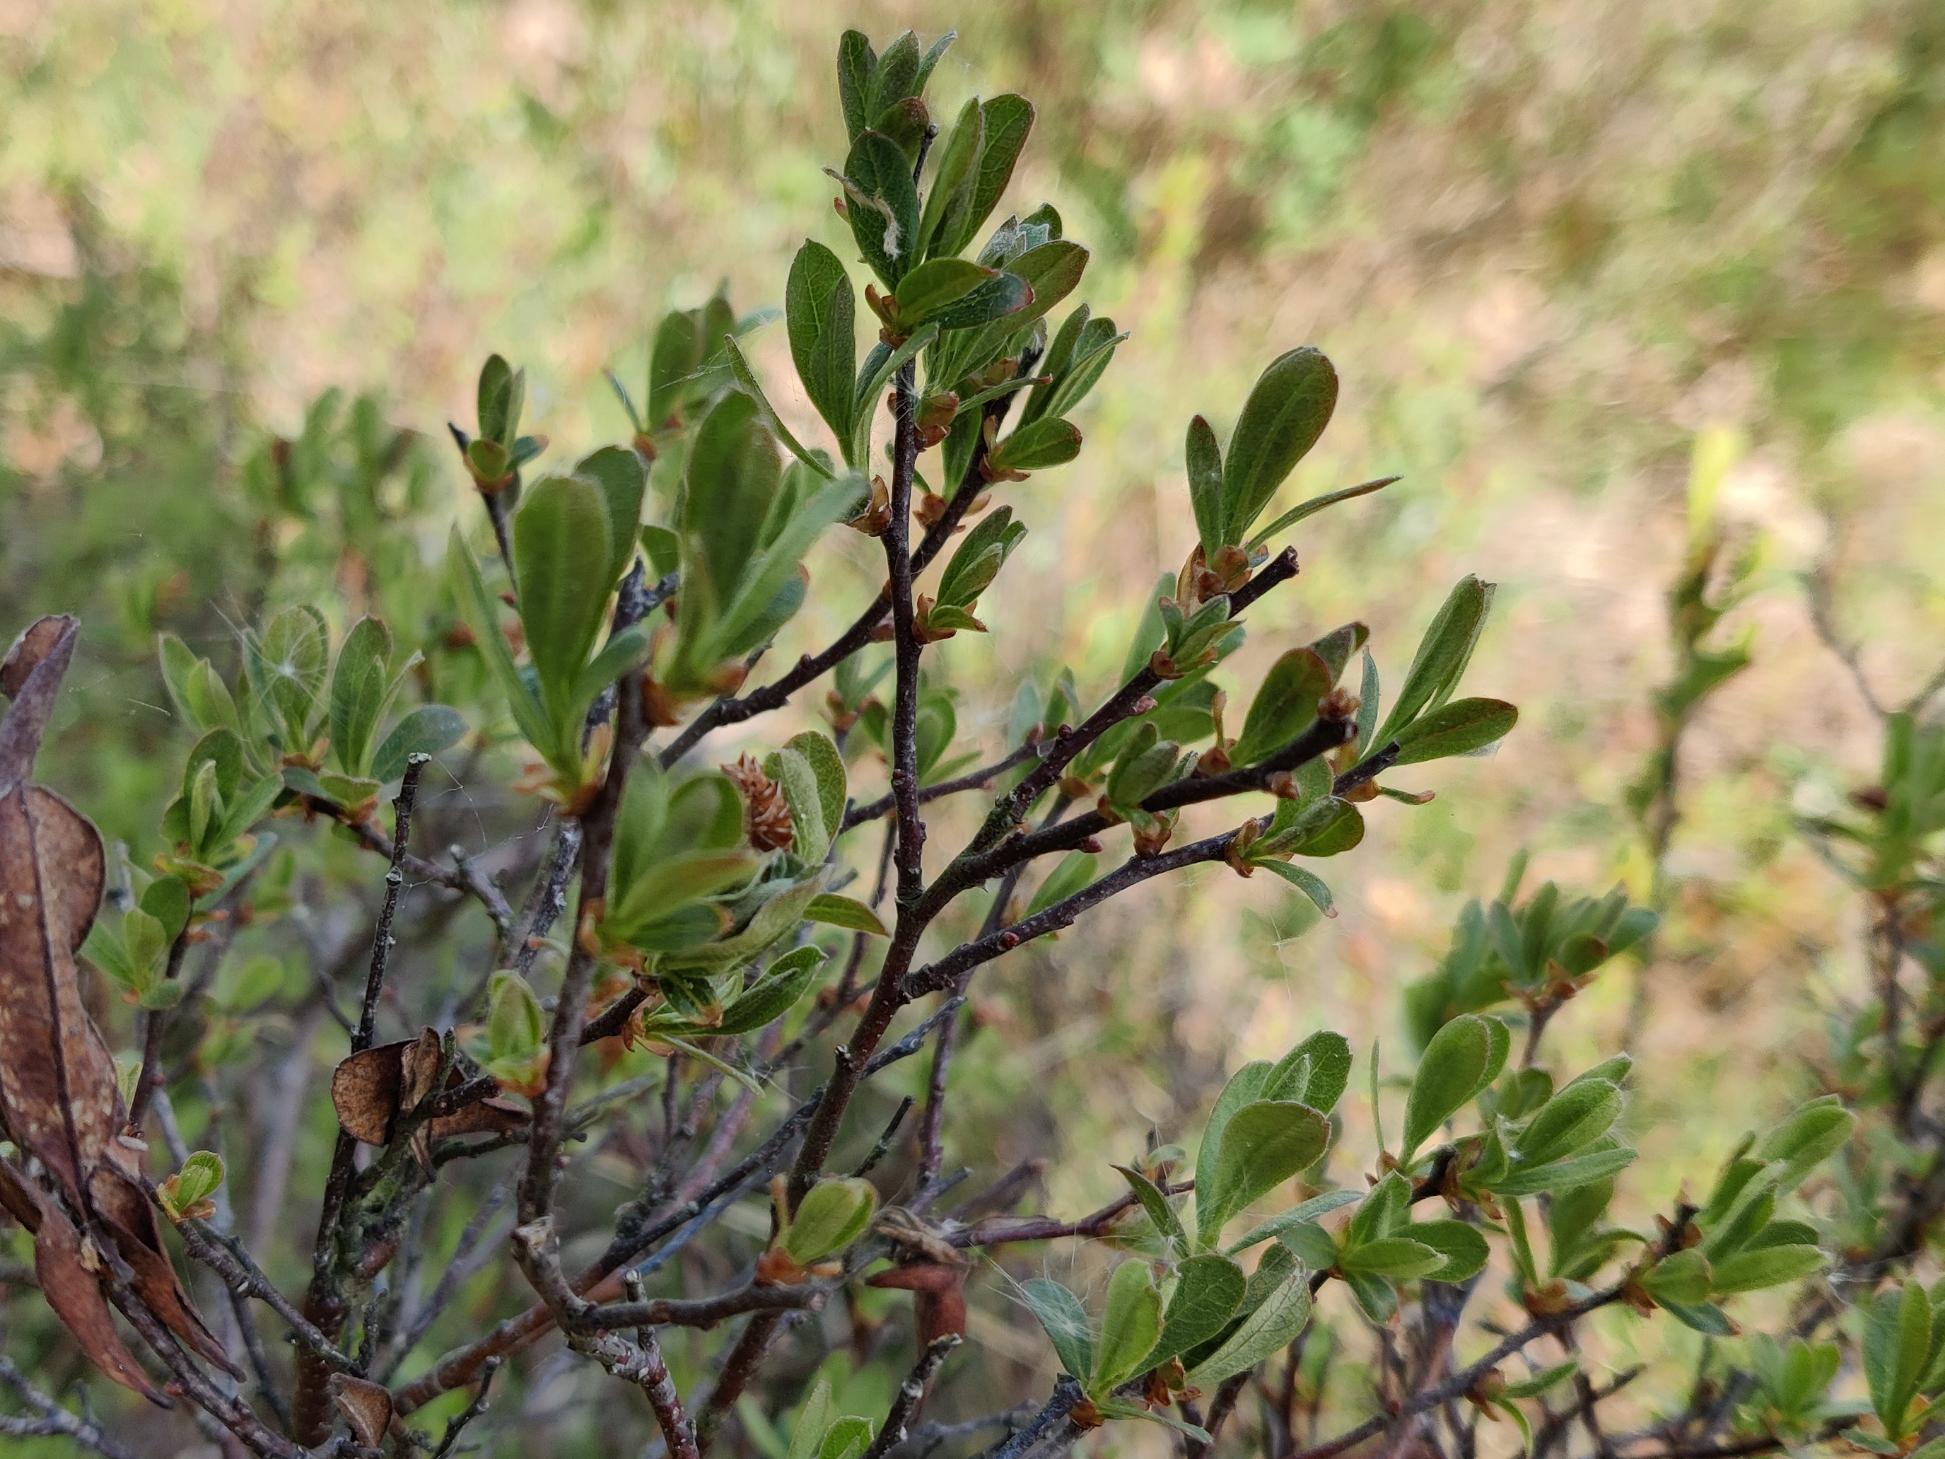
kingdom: Plantae
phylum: Tracheophyta
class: Magnoliopsida
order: Fagales
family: Myricaceae
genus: Myrica
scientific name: Myrica gale
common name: Pors
